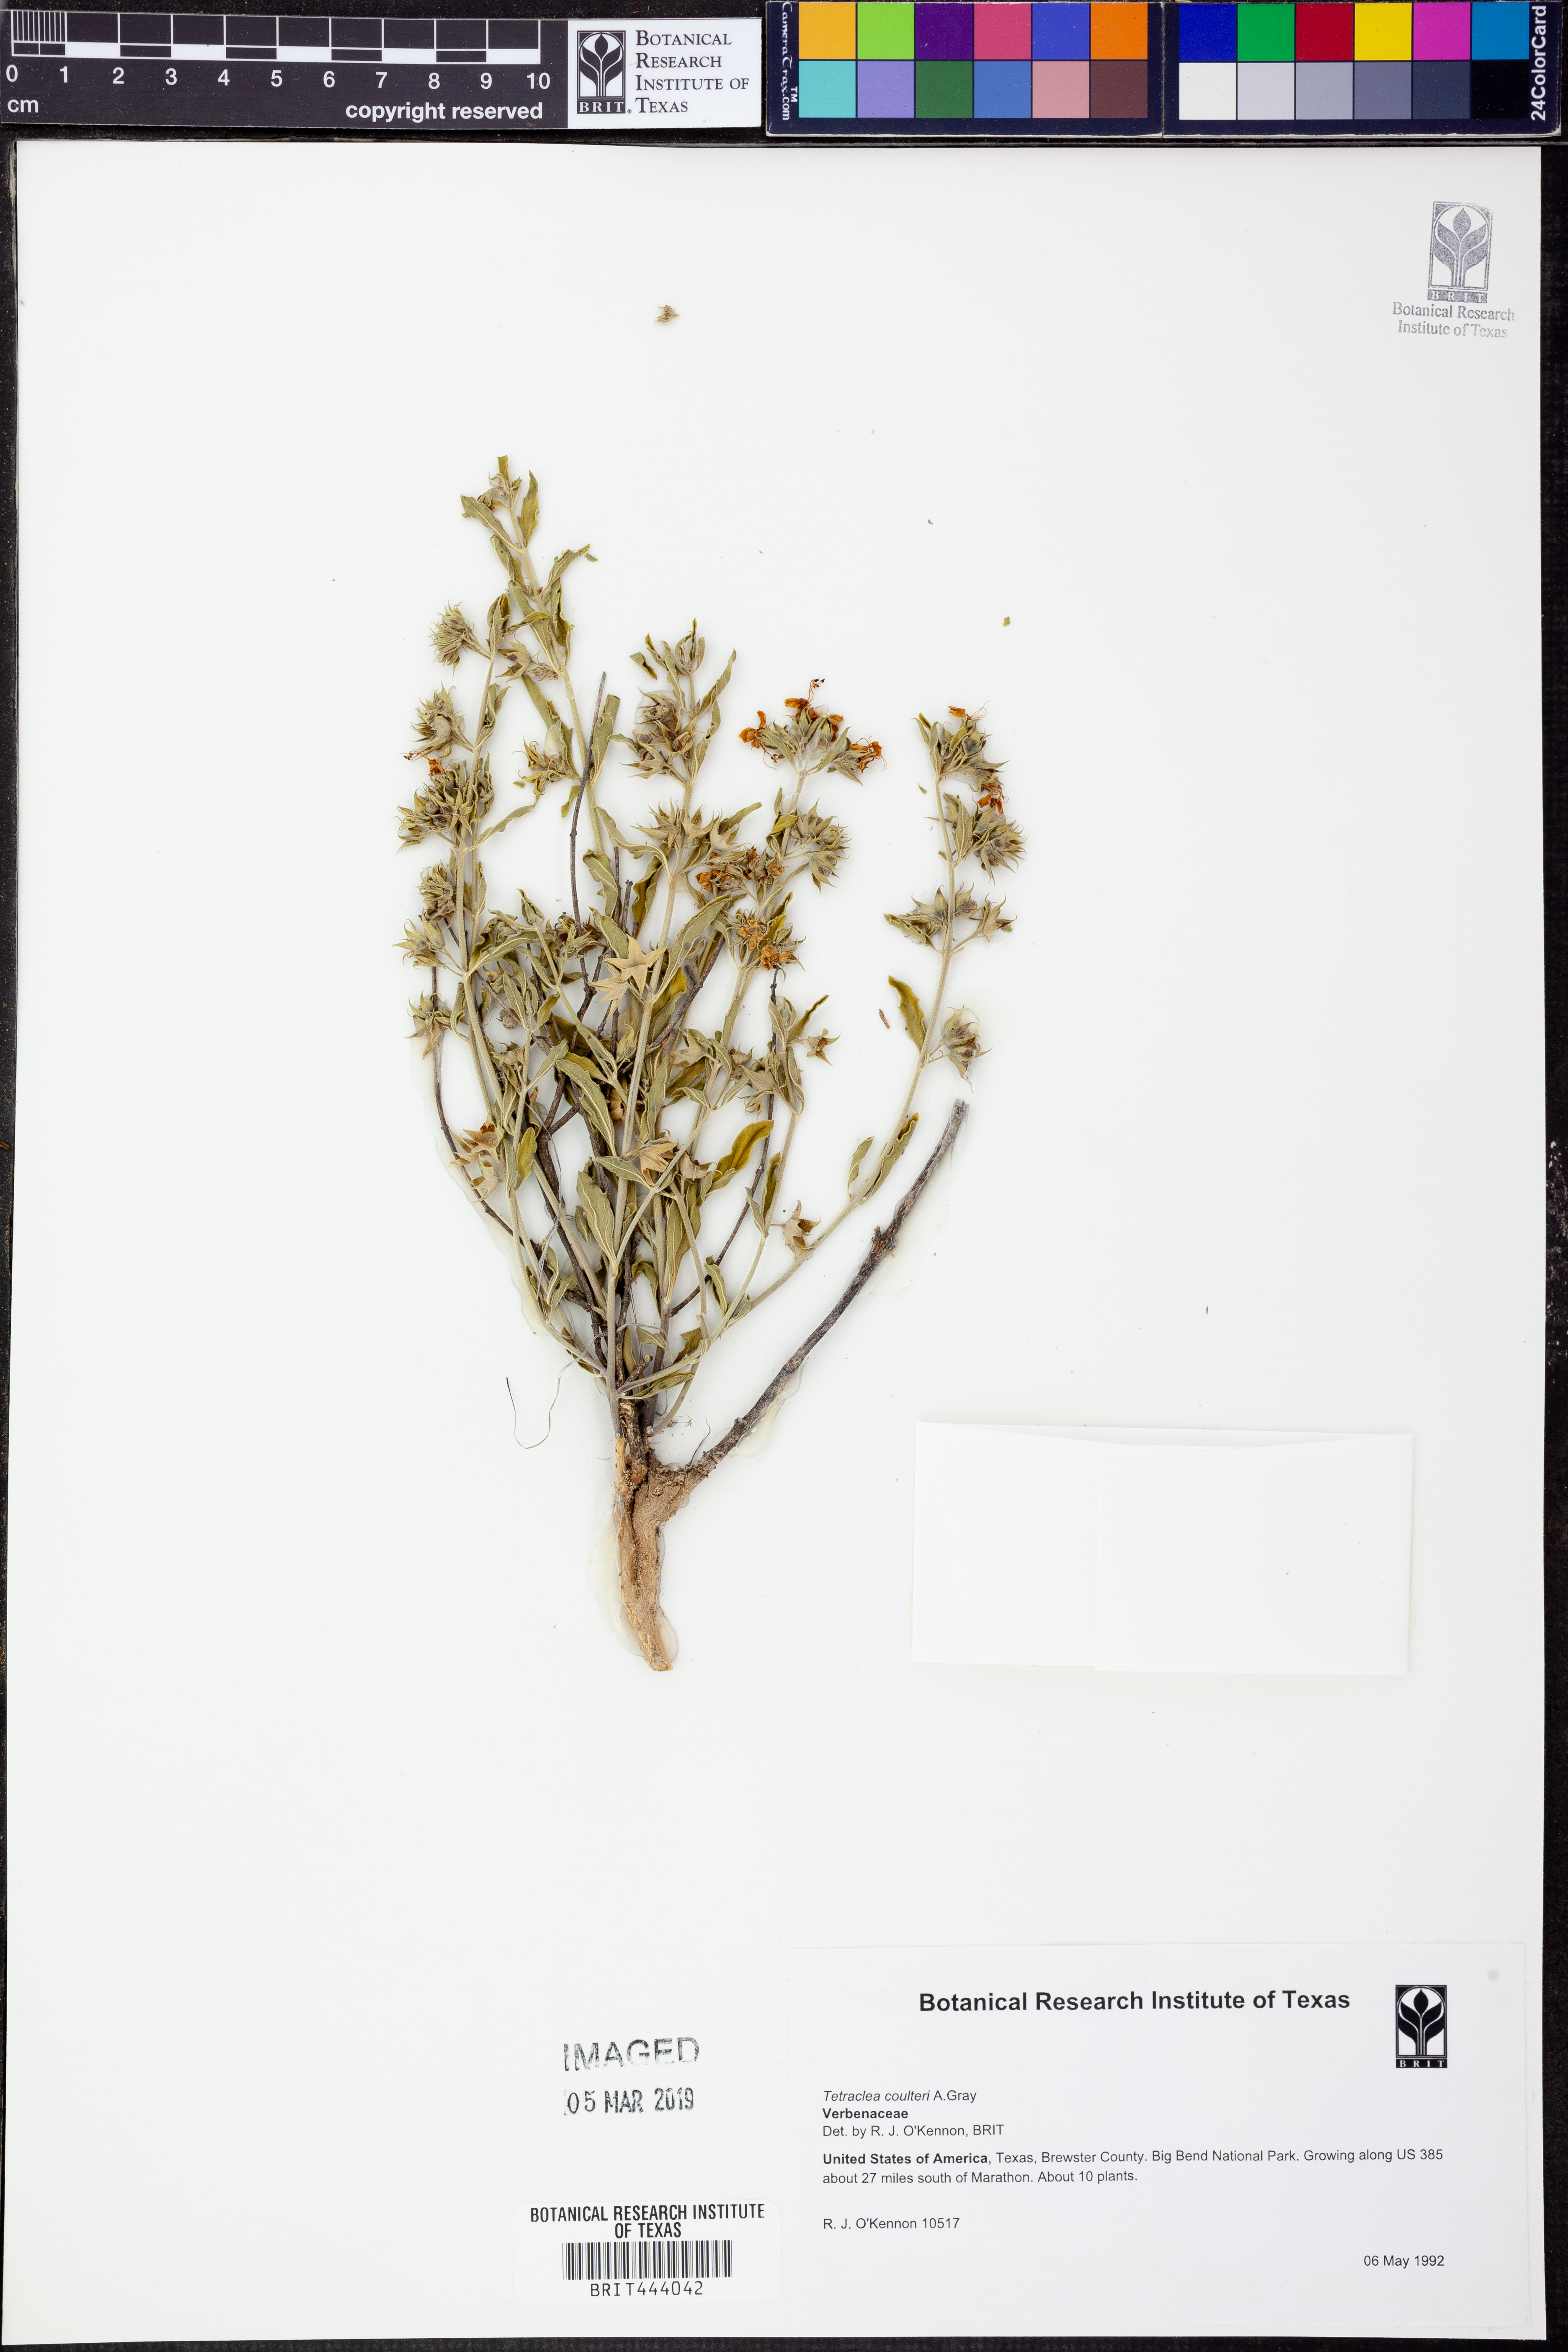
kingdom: Plantae
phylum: Tracheophyta
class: Magnoliopsida
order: Lamiales
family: Lamiaceae
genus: Tetraclea
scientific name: Tetraclea coulteri
